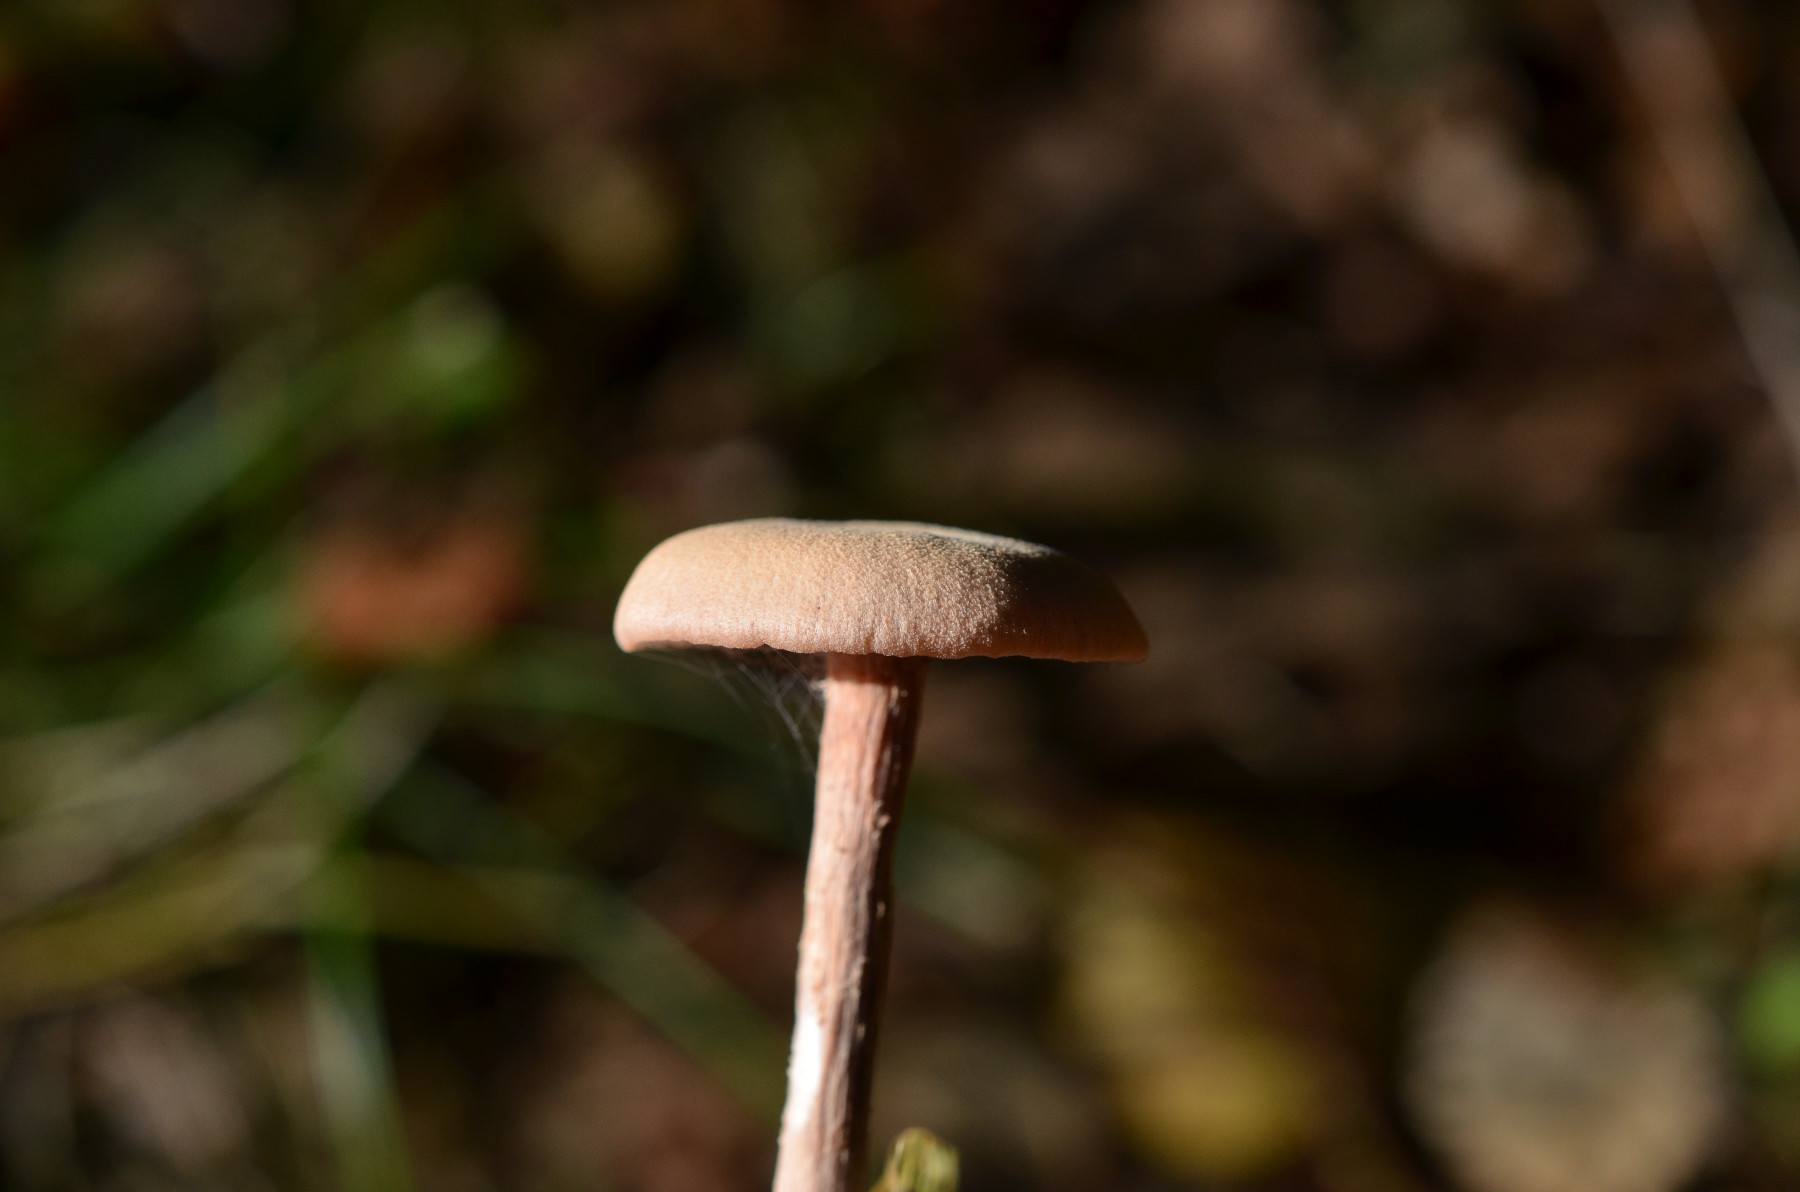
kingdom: Fungi
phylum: Basidiomycota
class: Agaricomycetes
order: Agaricales
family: Hydnangiaceae
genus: Laccaria
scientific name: Laccaria laccata
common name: rød ametysthat
